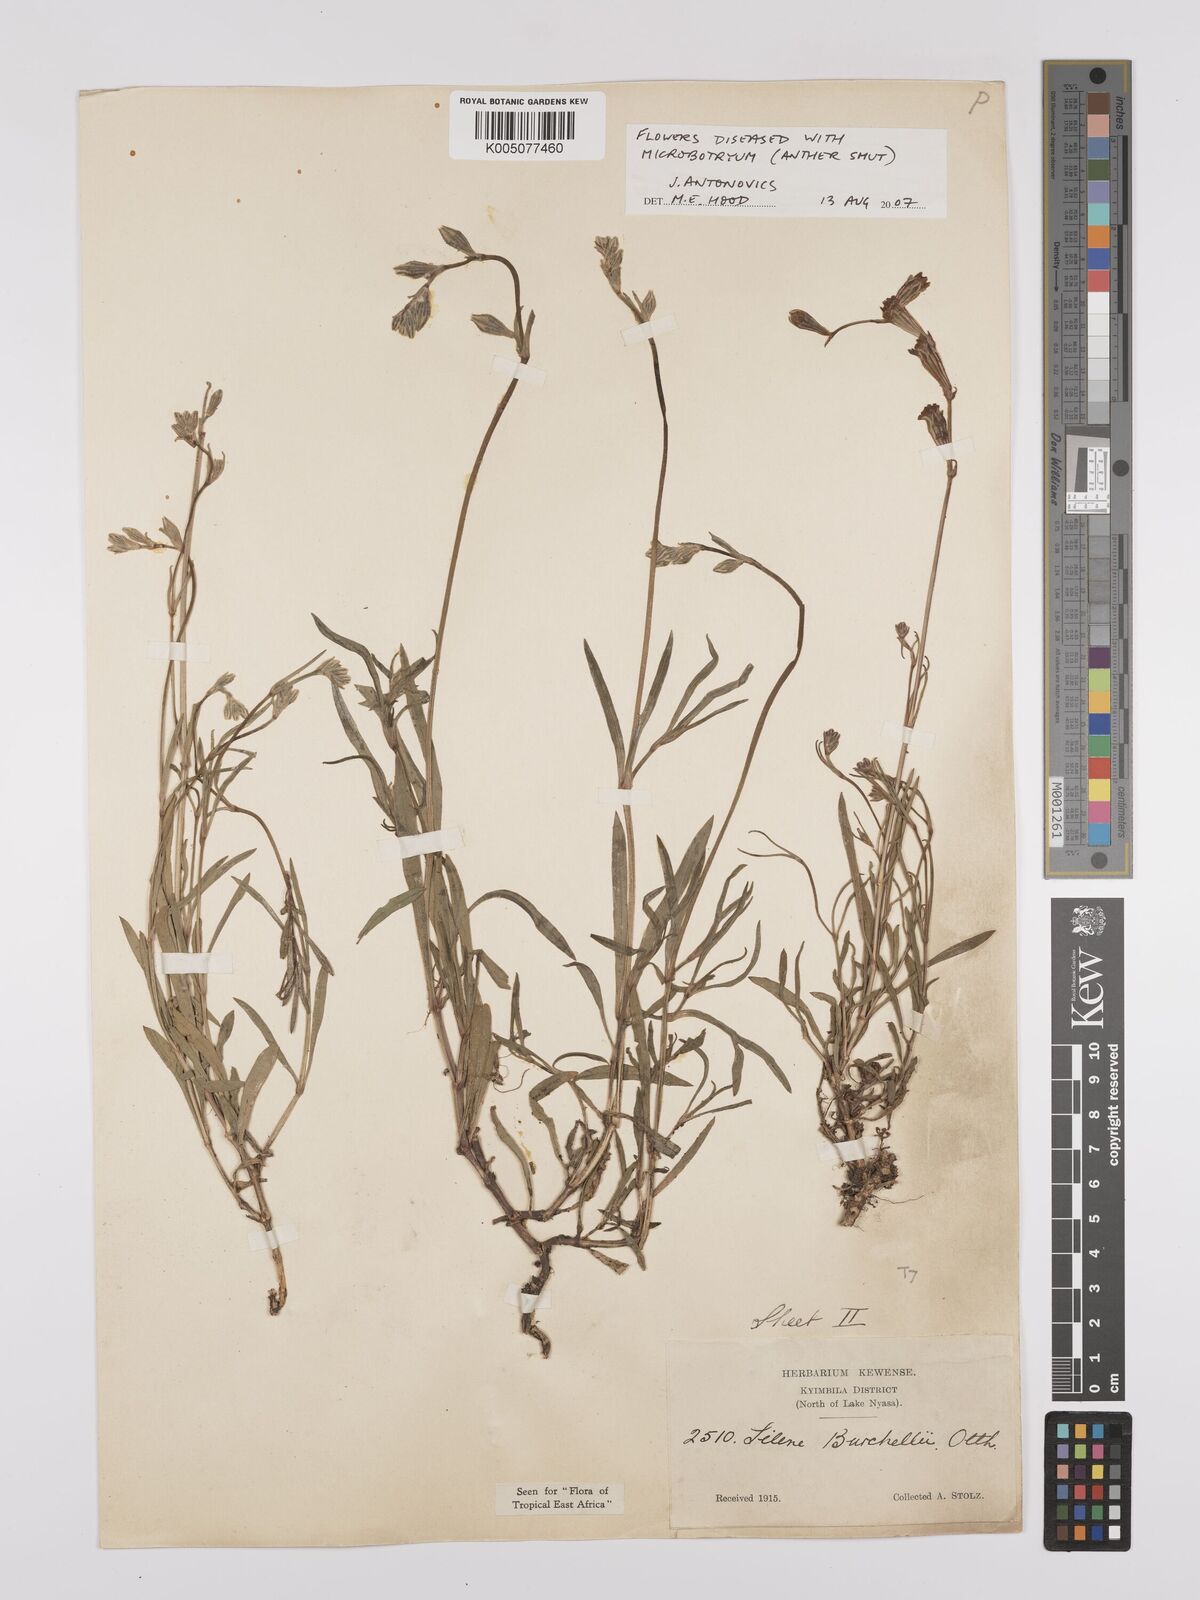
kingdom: Plantae
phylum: Tracheophyta
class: Magnoliopsida
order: Caryophyllales
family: Caryophyllaceae
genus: Silene
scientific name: Silene burchellii
